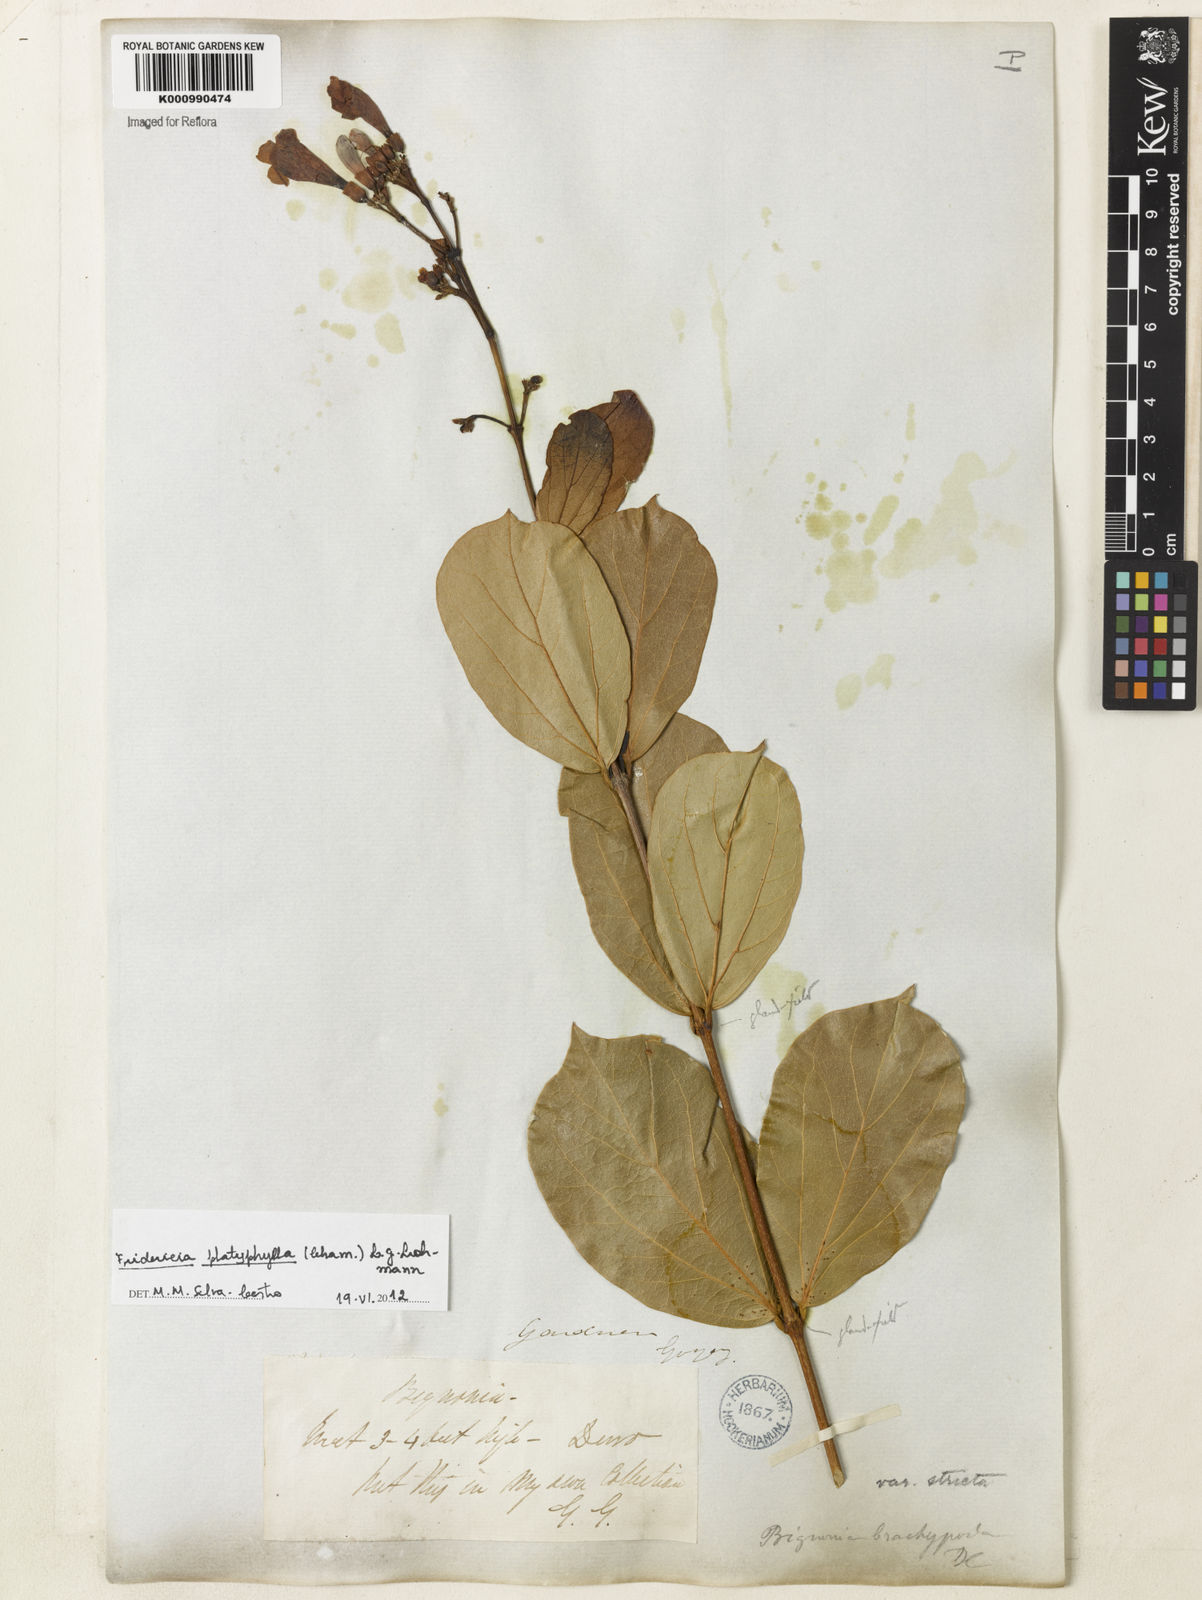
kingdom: Plantae
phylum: Tracheophyta
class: Magnoliopsida
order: Lamiales
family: Bignoniaceae
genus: Fridericia
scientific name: Fridericia platyphylla
